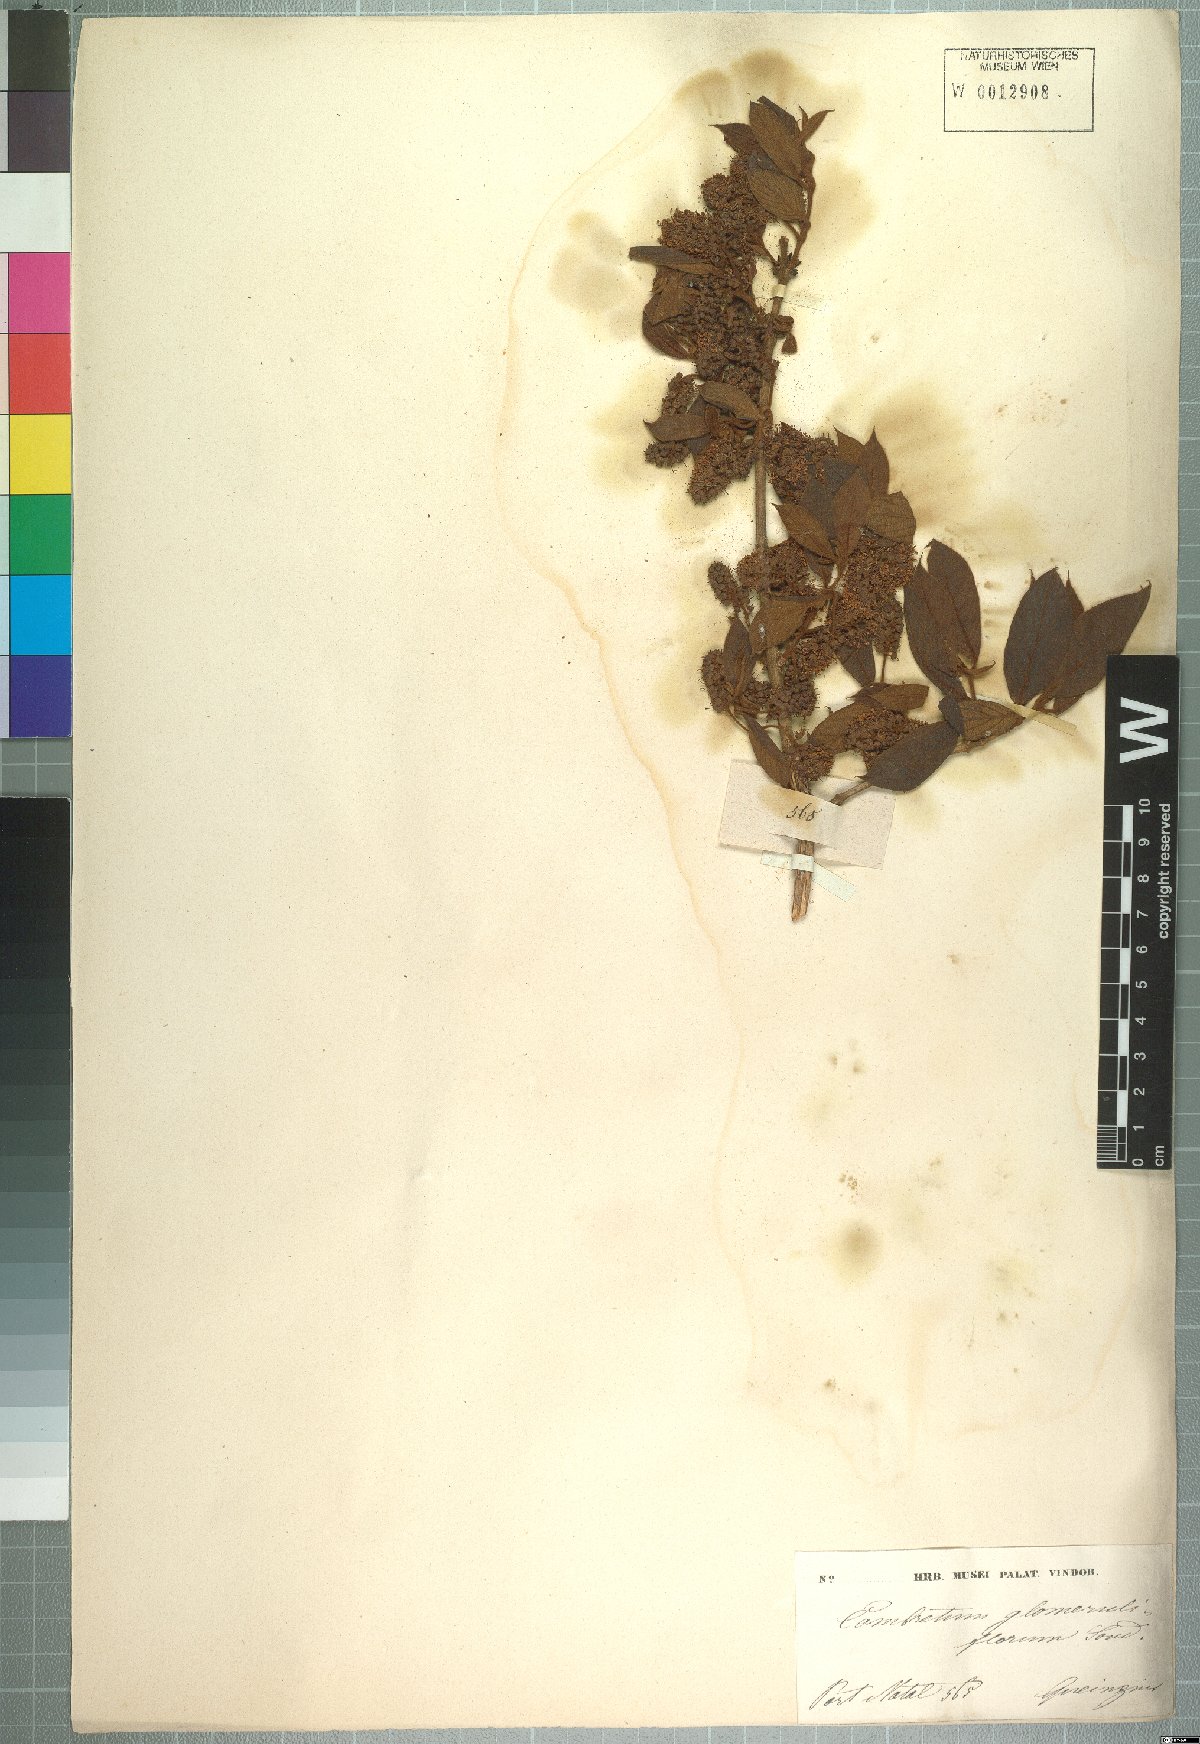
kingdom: Plantae
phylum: Tracheophyta
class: Magnoliopsida
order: Myrtales
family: Combretaceae
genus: Combretum
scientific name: Combretum erythrophyllum
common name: Bush-willow
